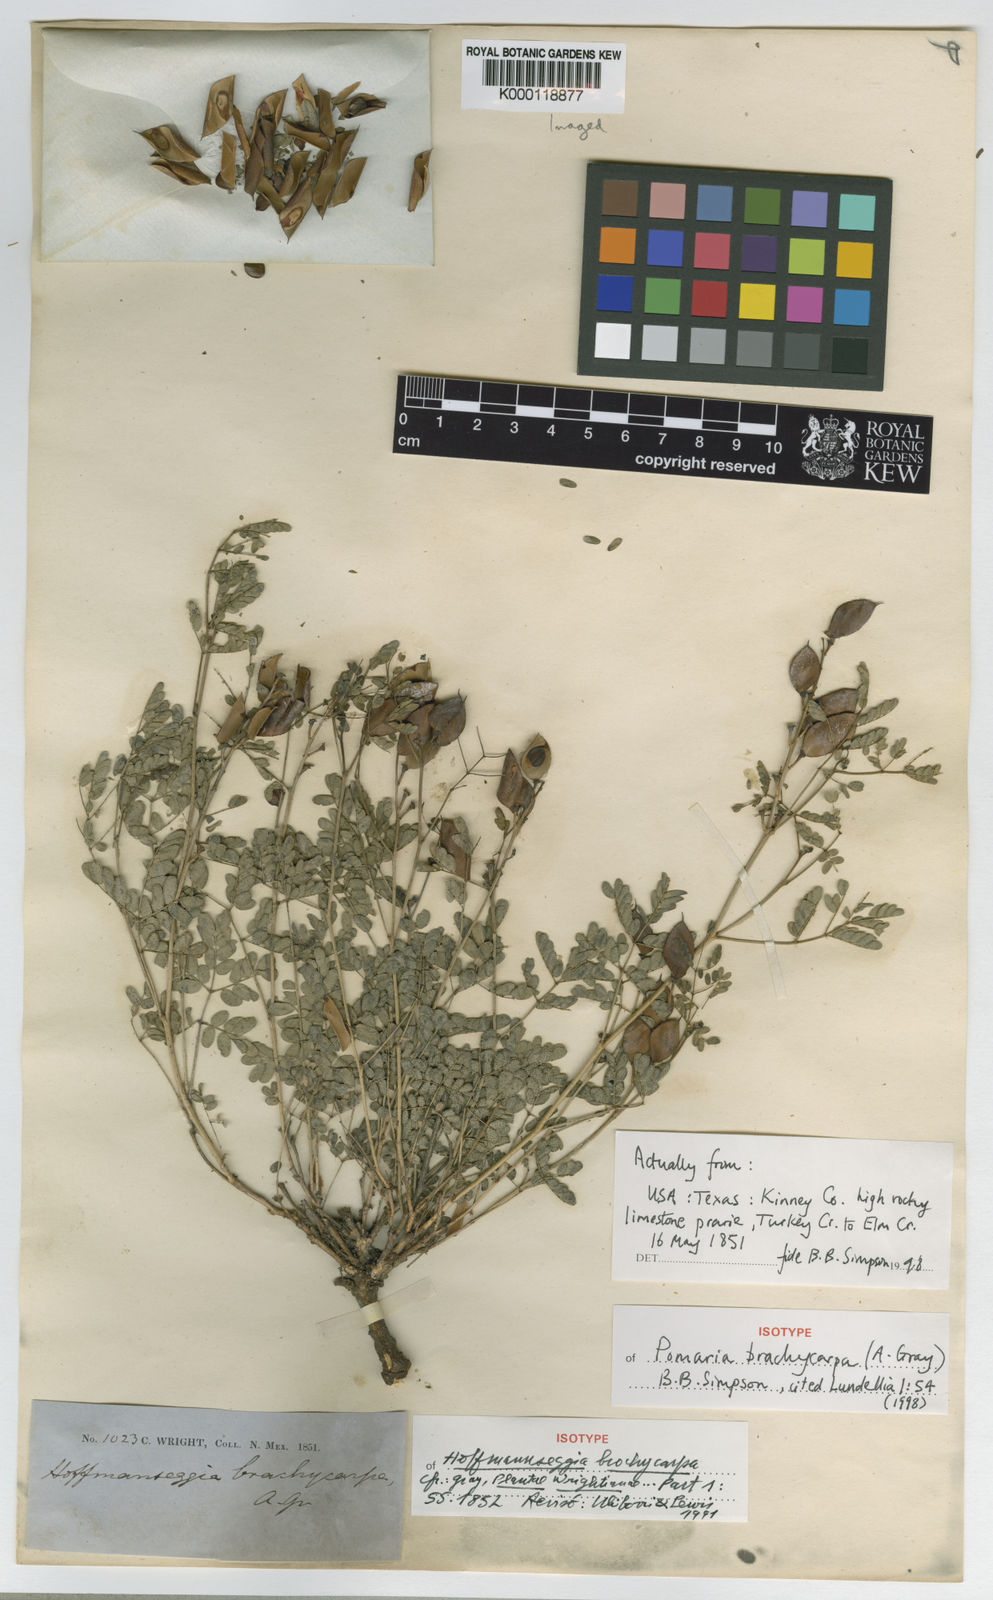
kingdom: Plantae
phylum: Tracheophyta
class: Magnoliopsida
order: Fabales
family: Fabaceae
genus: Pomaria
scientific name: Pomaria brachycarpa
